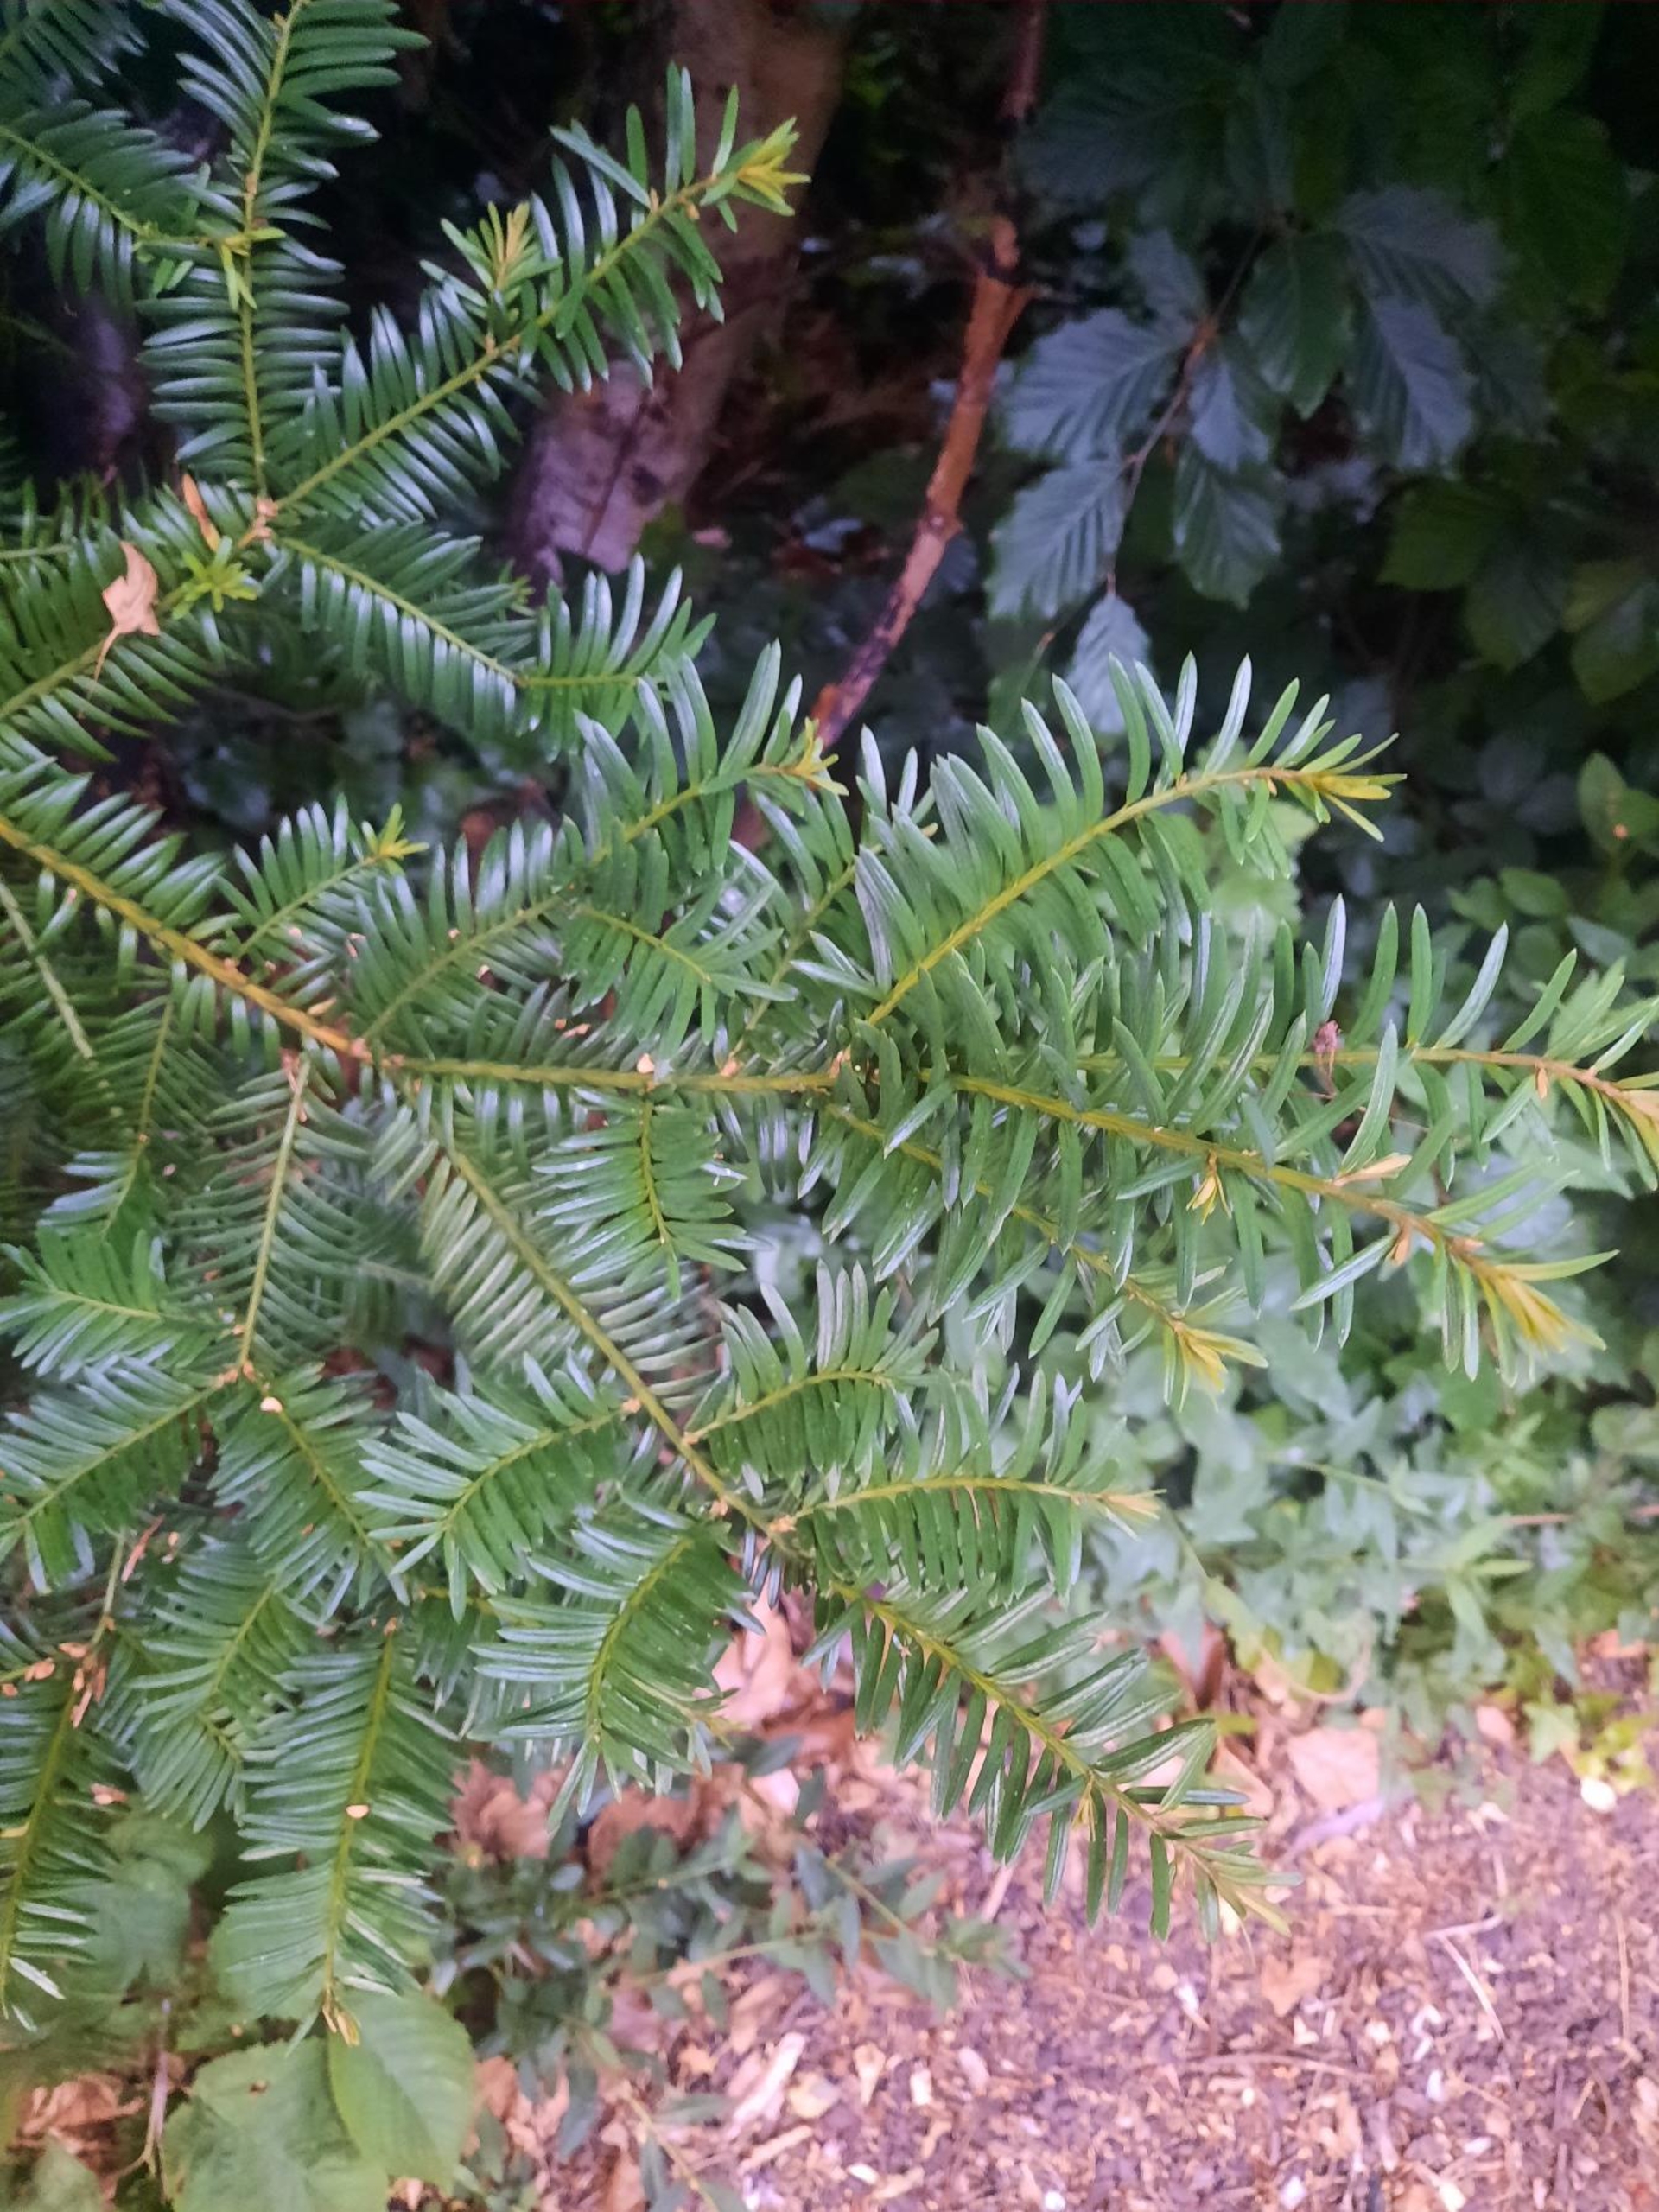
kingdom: Plantae
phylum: Tracheophyta
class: Pinopsida
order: Pinales
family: Taxaceae
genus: Taxus
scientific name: Taxus baccata
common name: Almindelig taks
